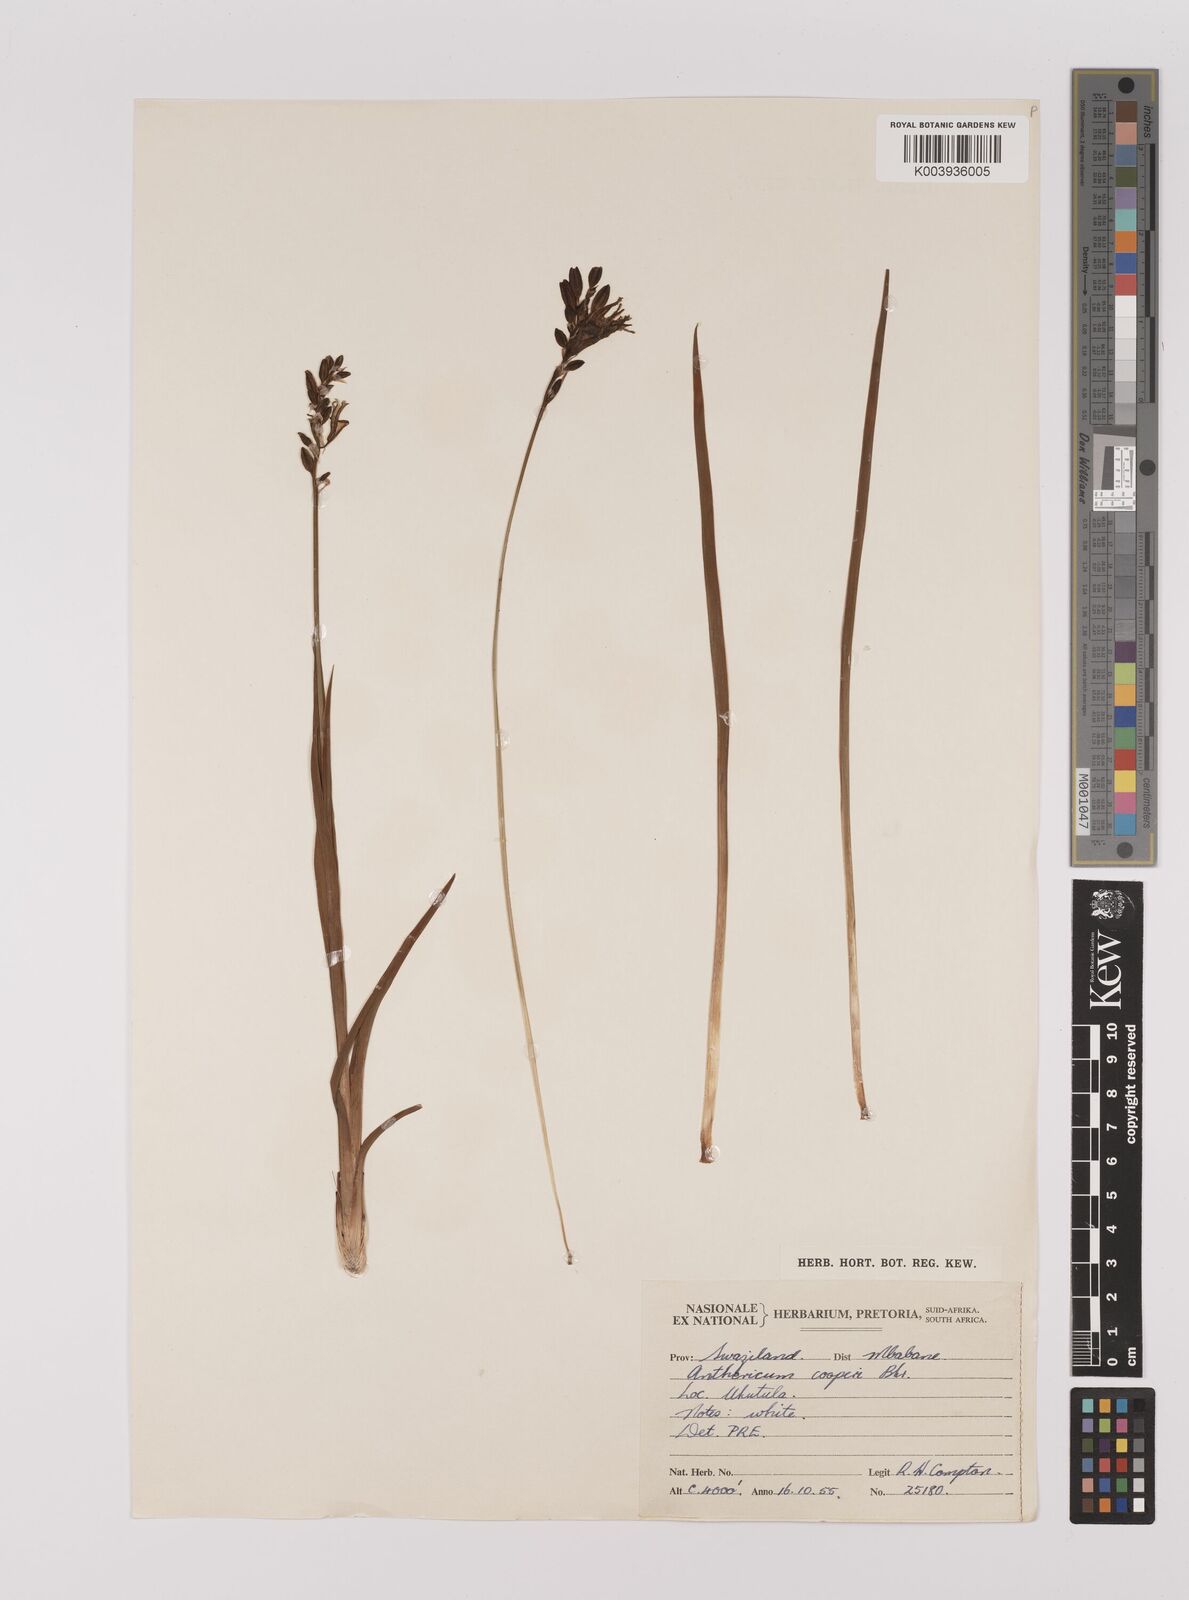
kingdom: Plantae
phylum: Tracheophyta
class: Liliopsida
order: Asparagales
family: Asparagaceae
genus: Chlorophytum
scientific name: Chlorophytum cooperi
